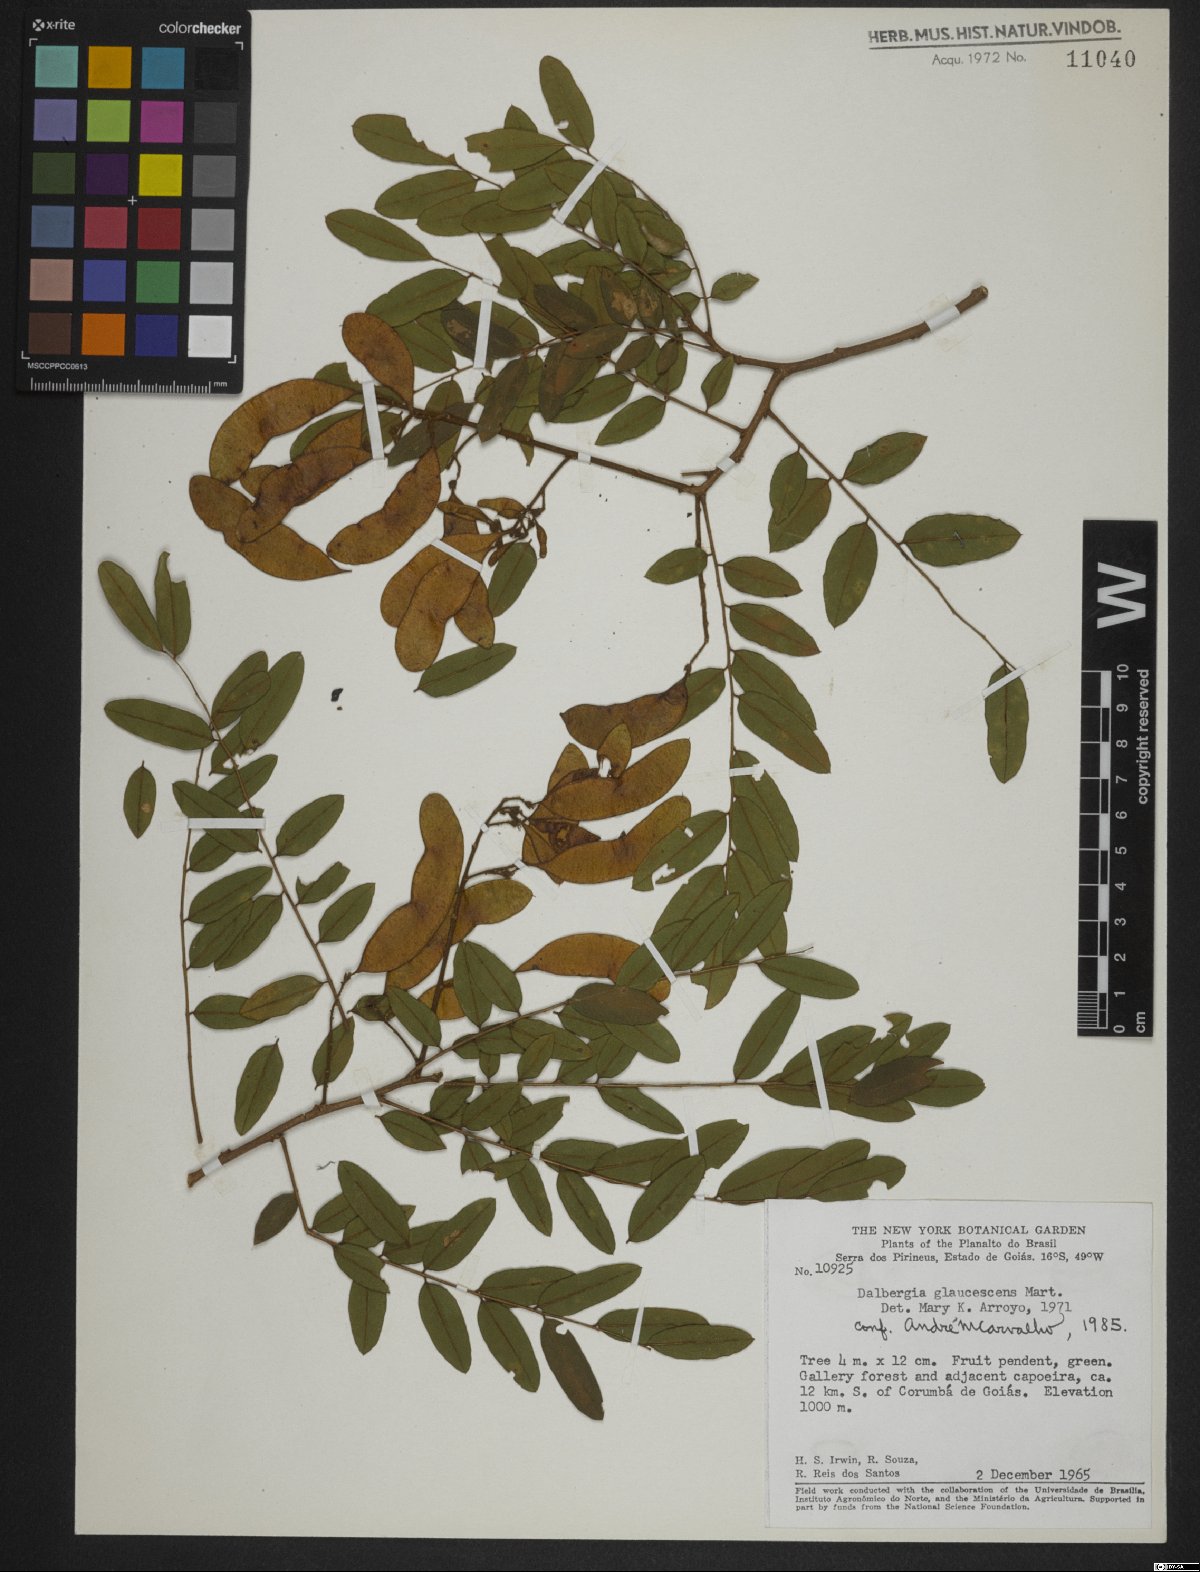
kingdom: Plantae
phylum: Tracheophyta
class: Magnoliopsida
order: Fabales
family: Fabaceae
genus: Dalbergia
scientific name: Dalbergia glaucescens
